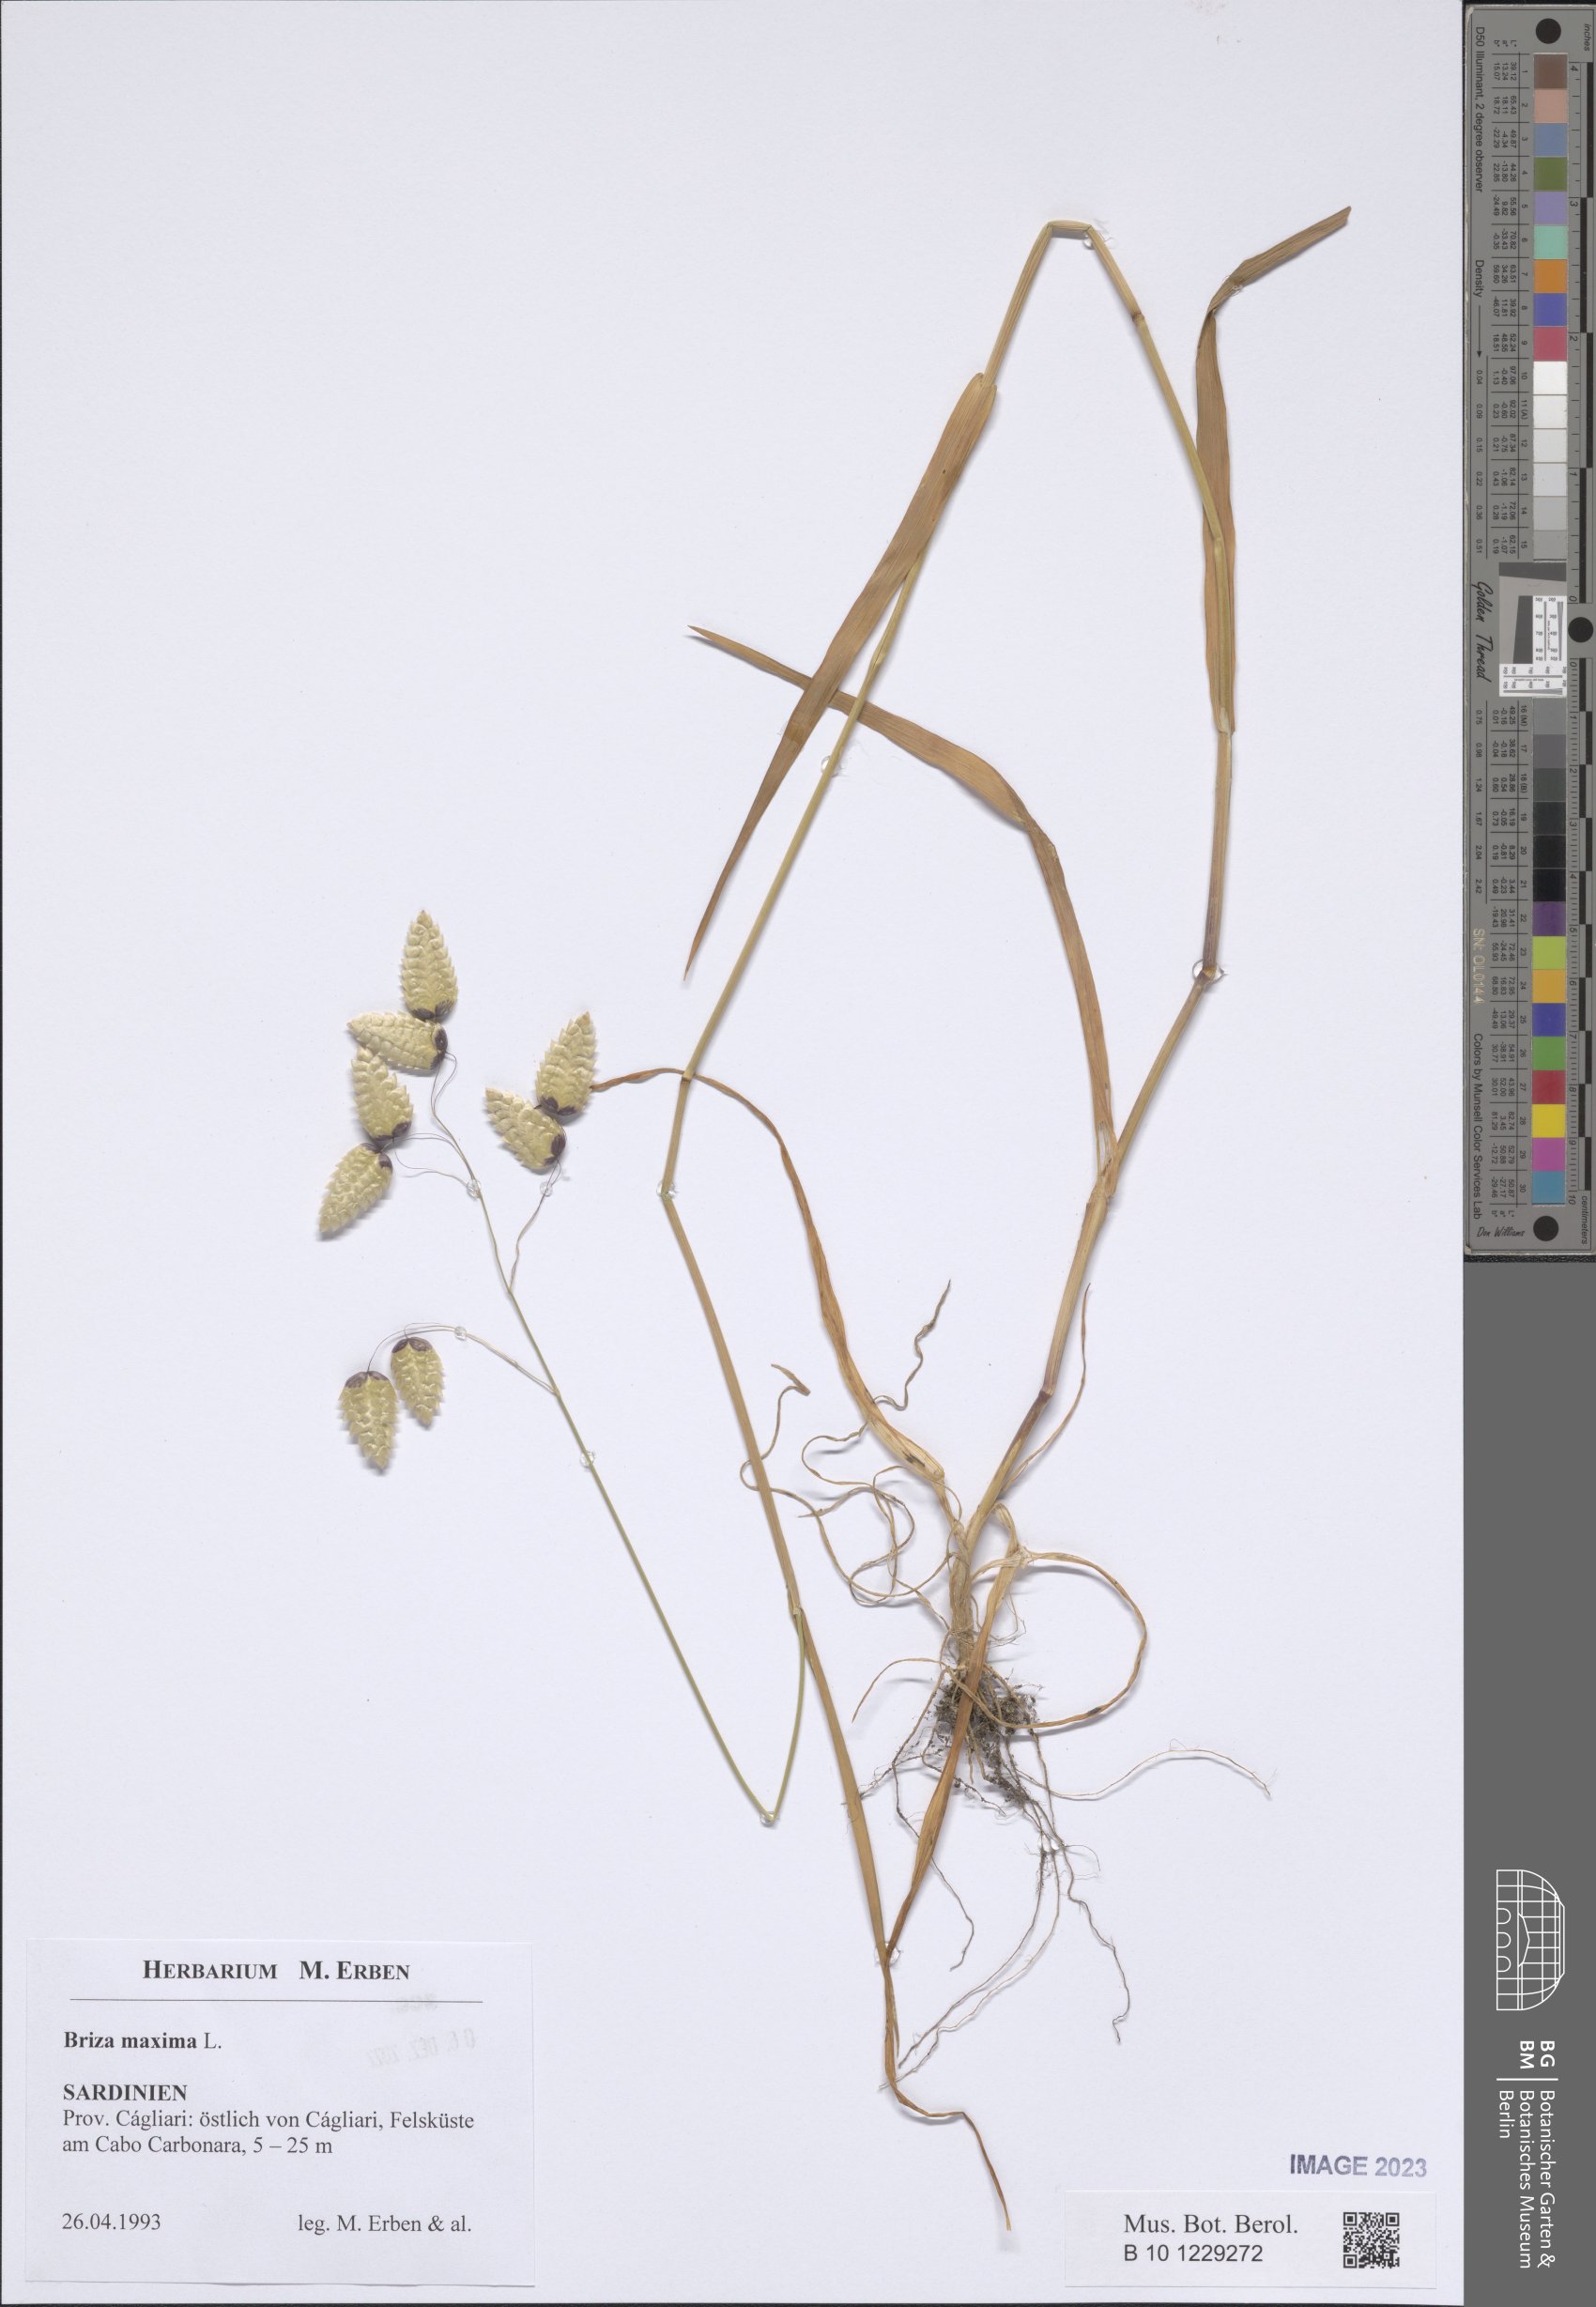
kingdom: Plantae
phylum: Tracheophyta
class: Liliopsida
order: Poales
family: Poaceae
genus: Briza
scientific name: Briza maxima
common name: Big quakinggrass
